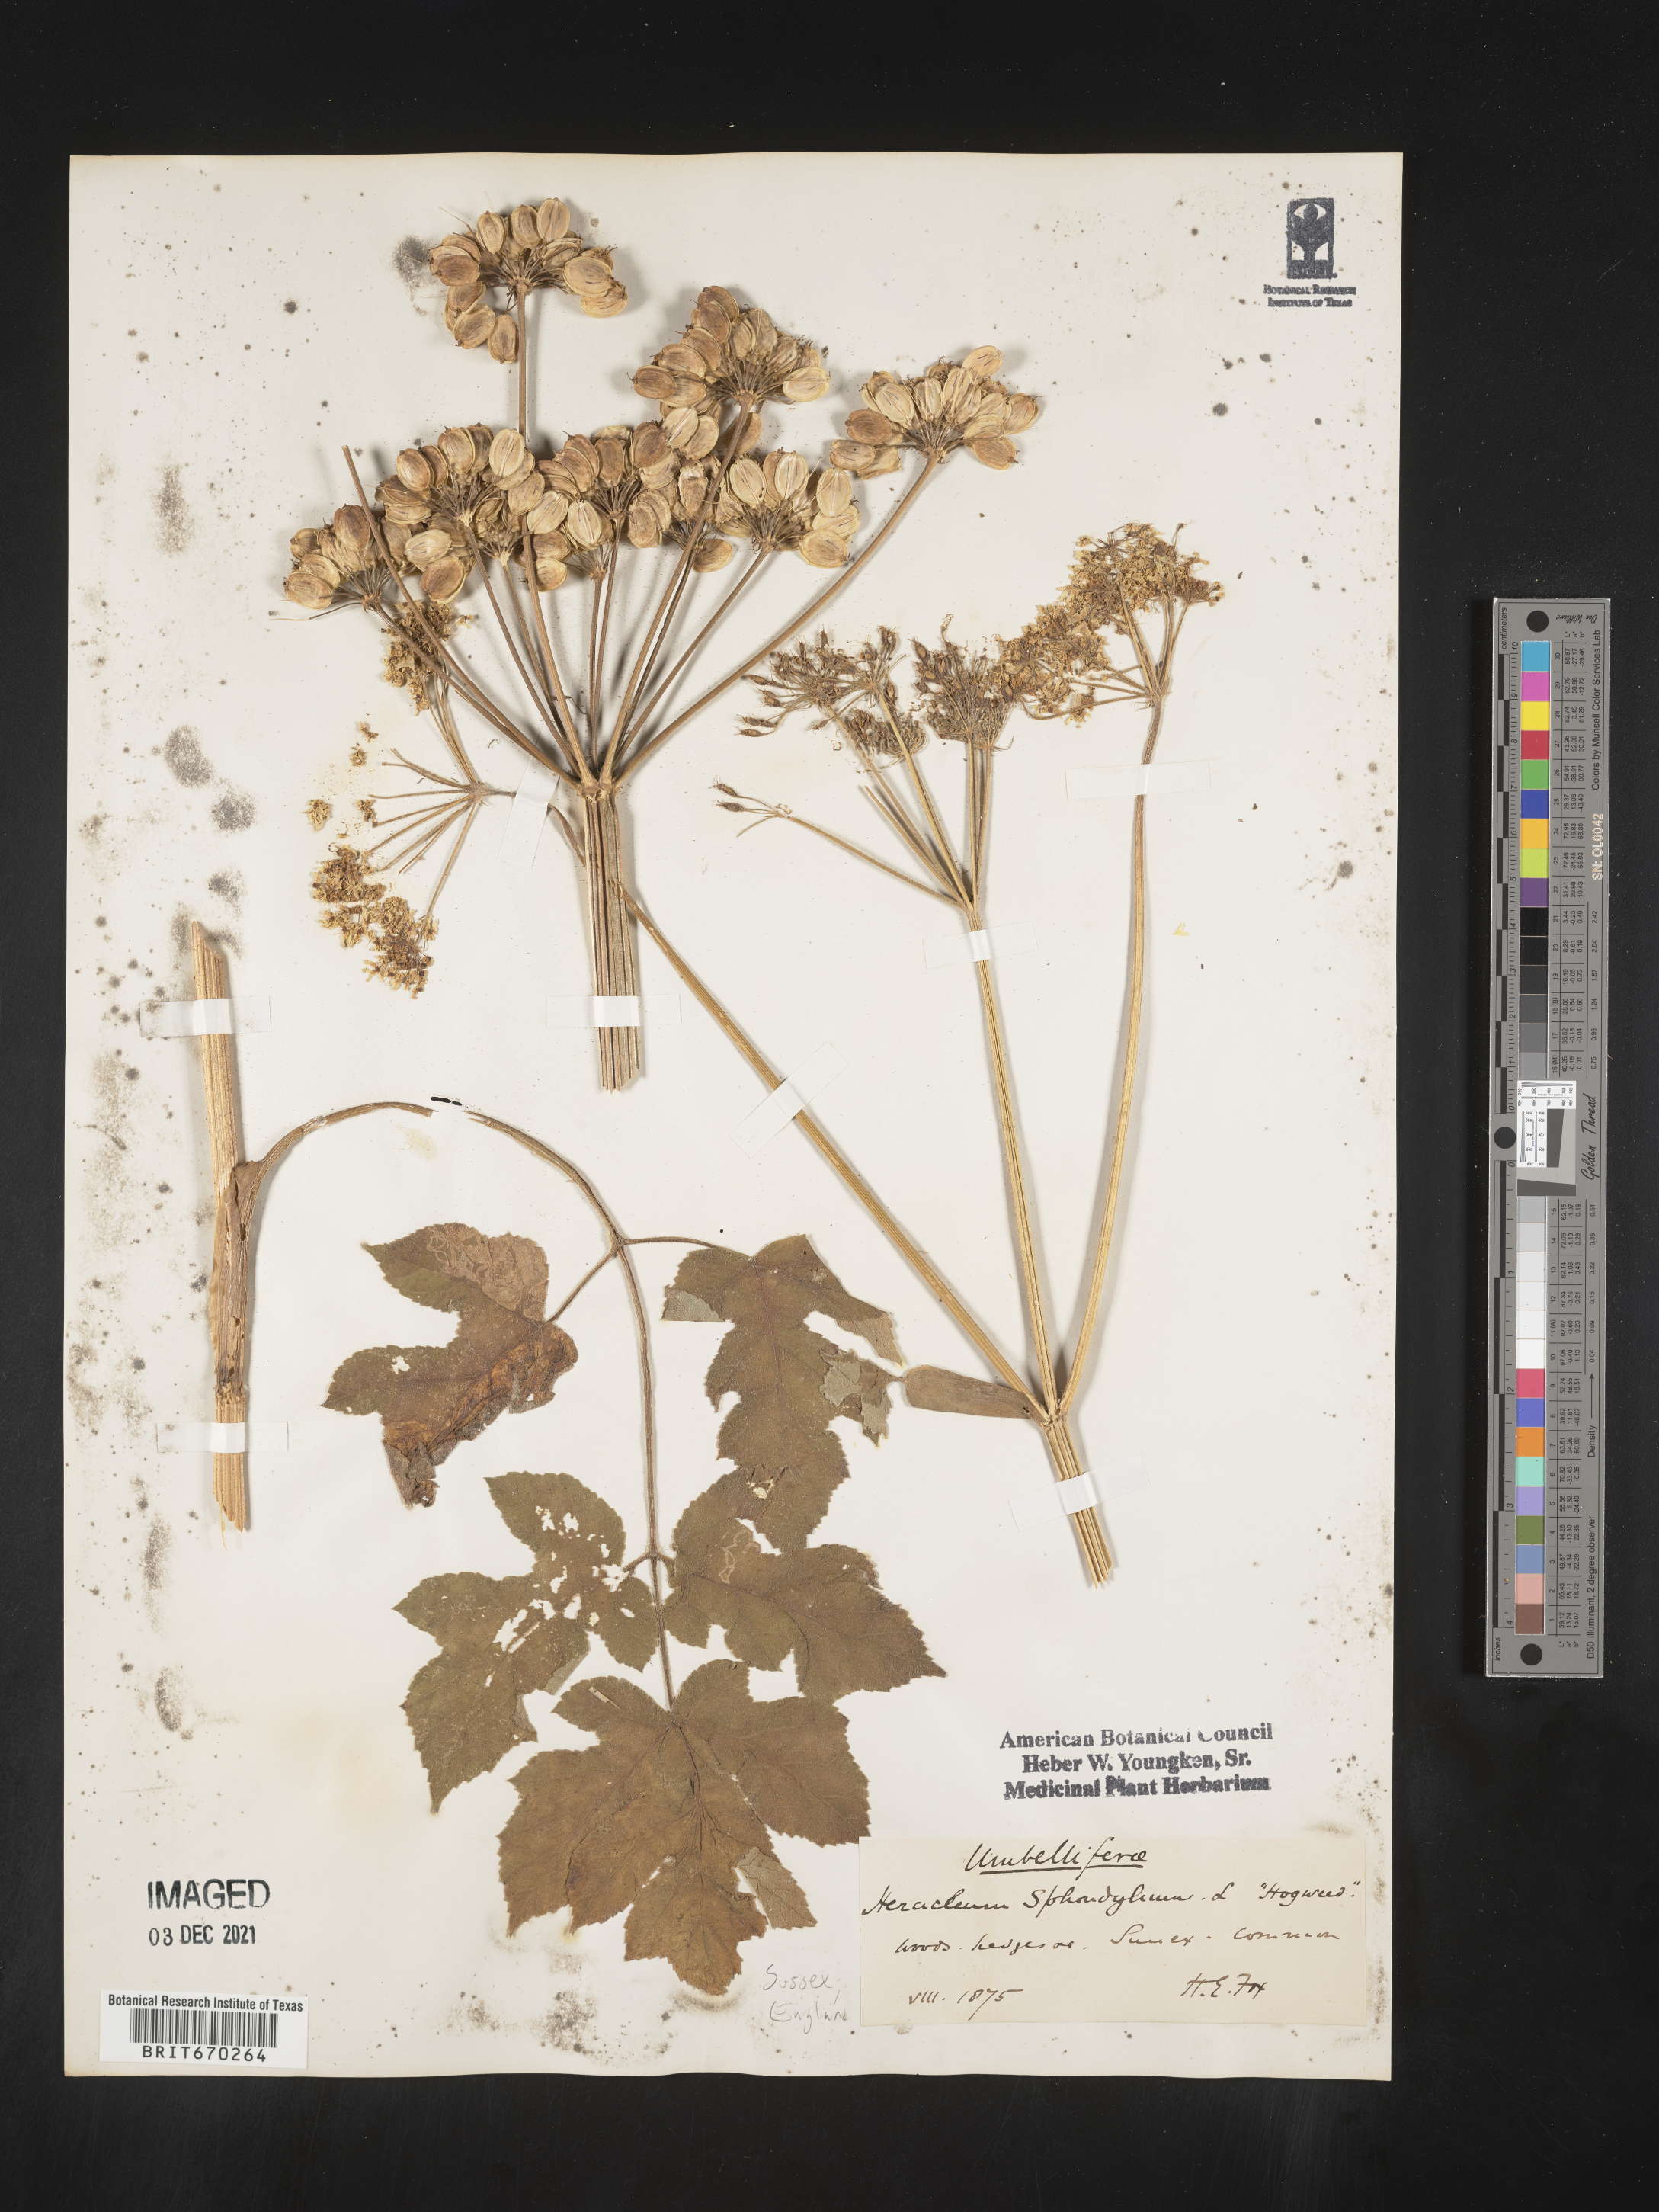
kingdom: Plantae
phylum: Tracheophyta
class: Magnoliopsida
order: Apiales
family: Apiaceae
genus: Heracleum
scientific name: Heracleum
